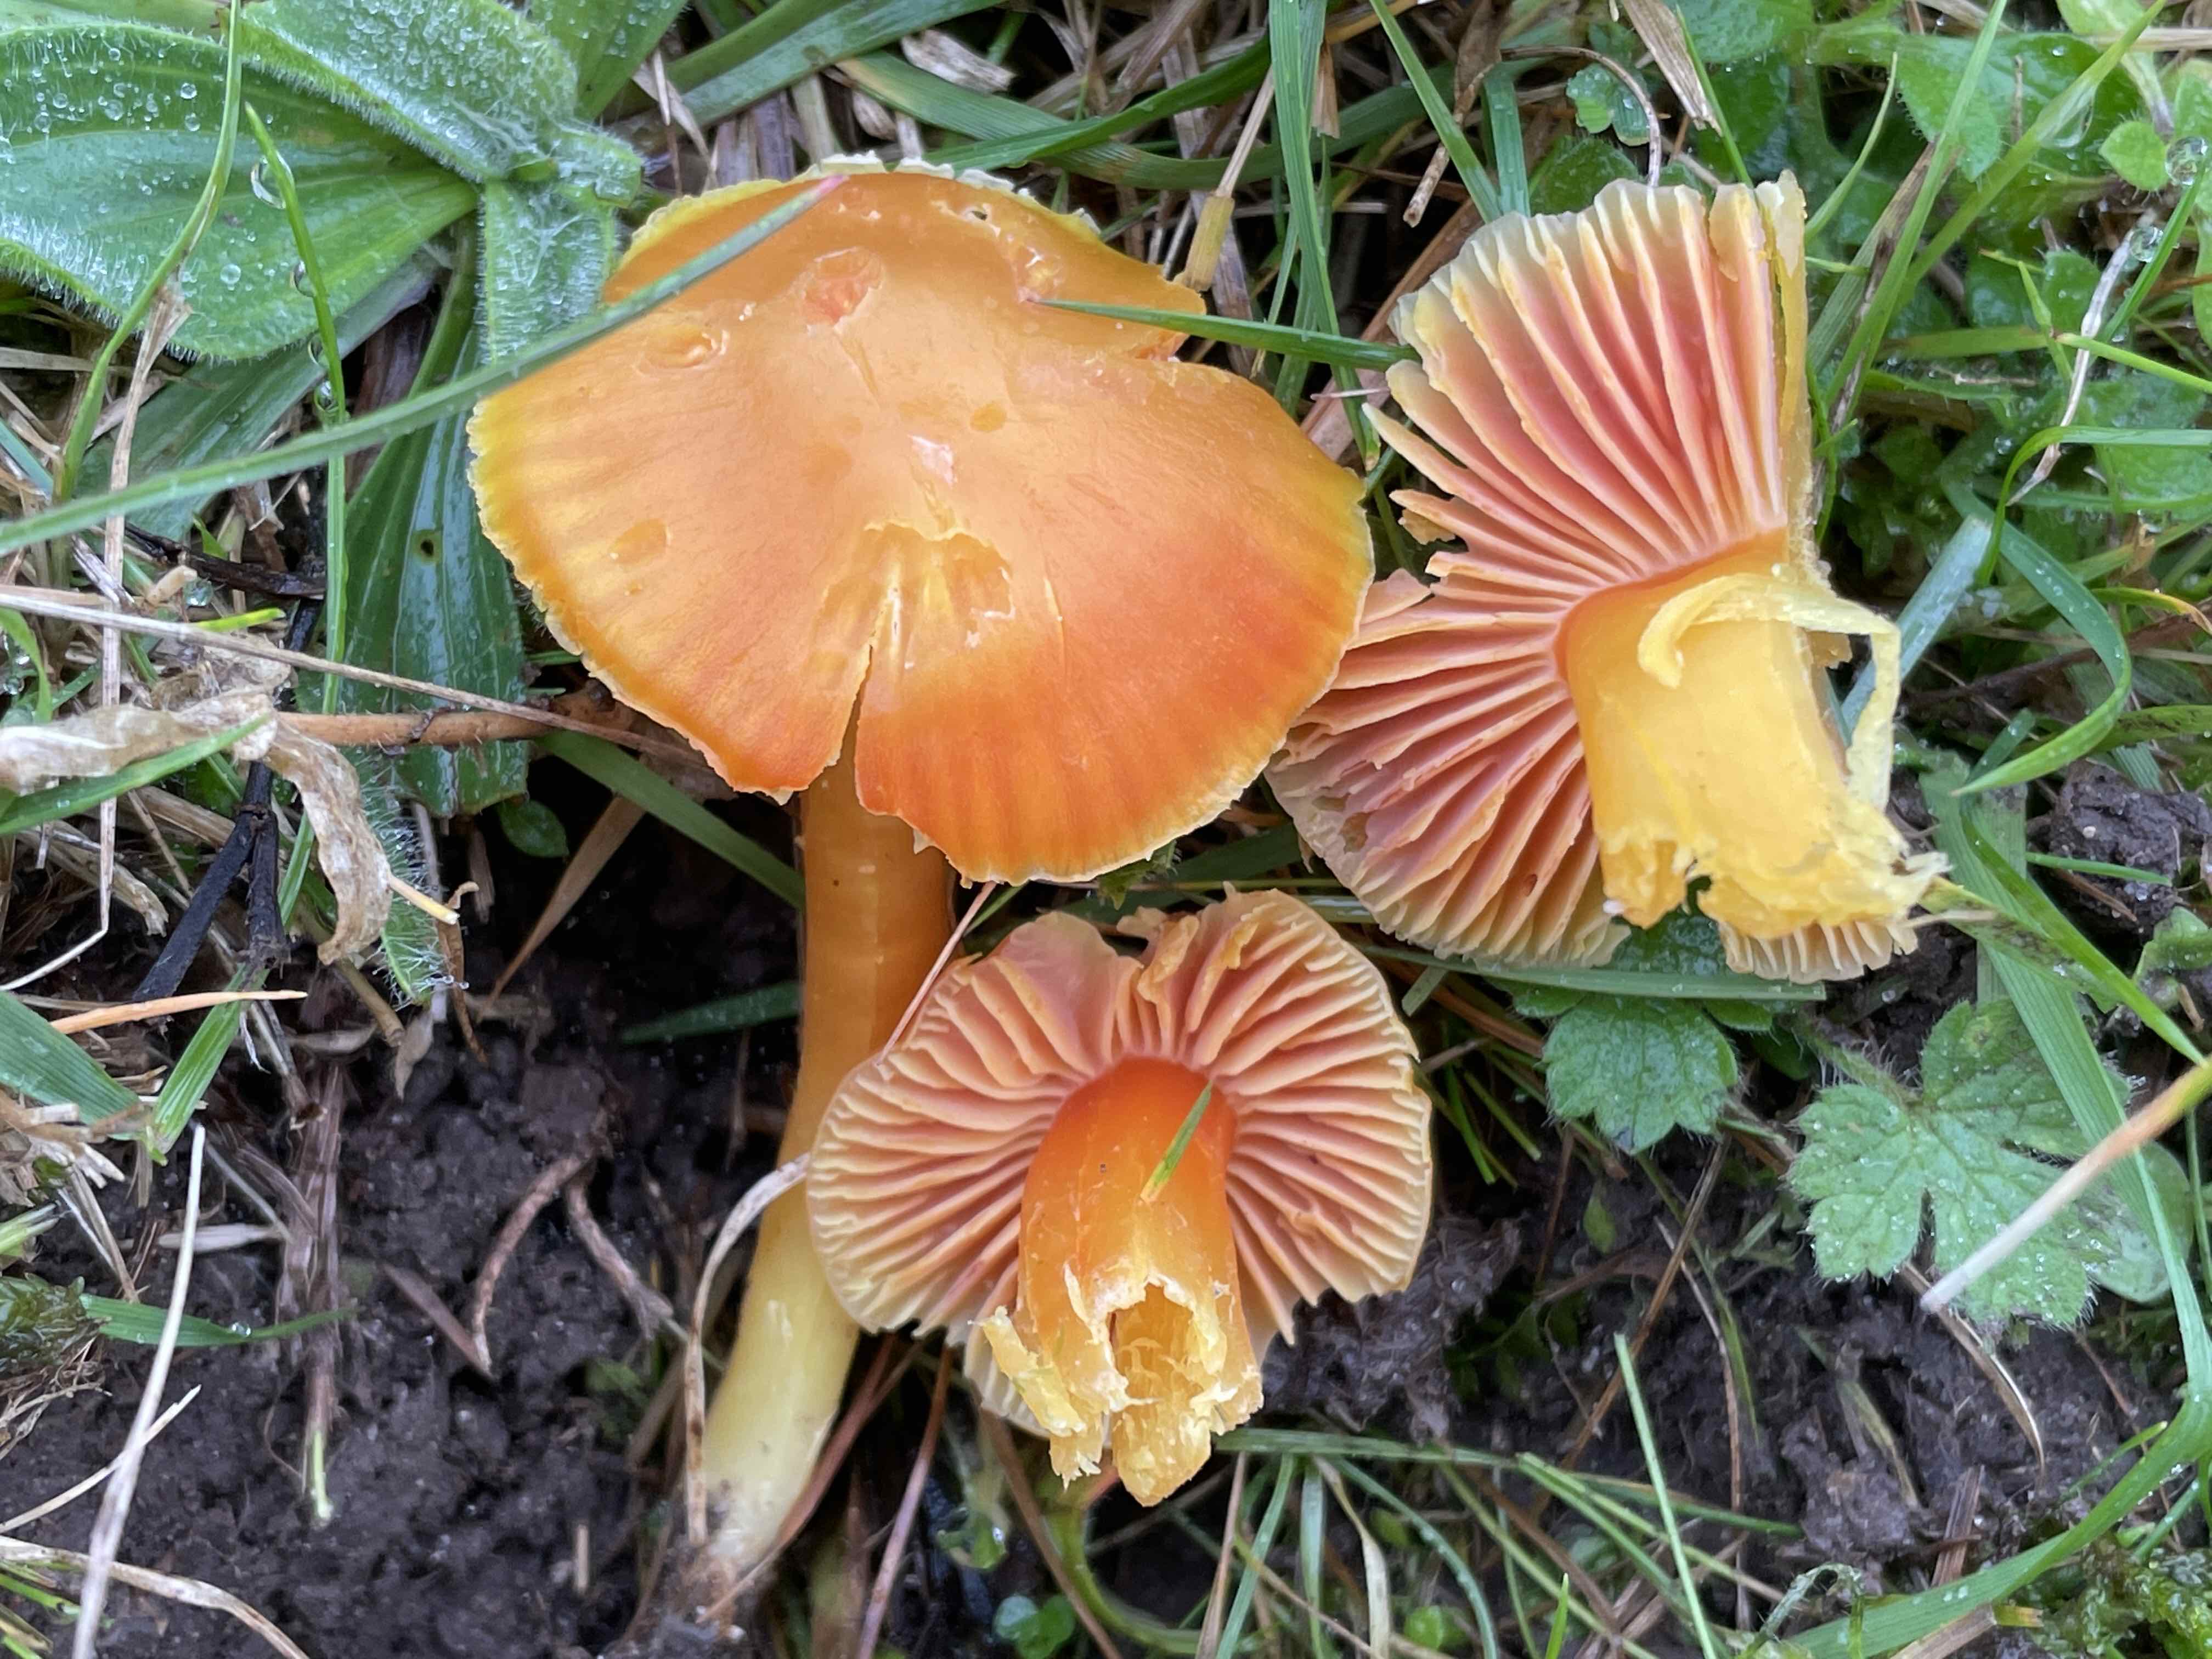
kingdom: Fungi
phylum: Basidiomycota
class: Agaricomycetes
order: Agaricales
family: Hygrophoraceae
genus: Hygrocybe
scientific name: Hygrocybe quieta
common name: tæge-vokshat
